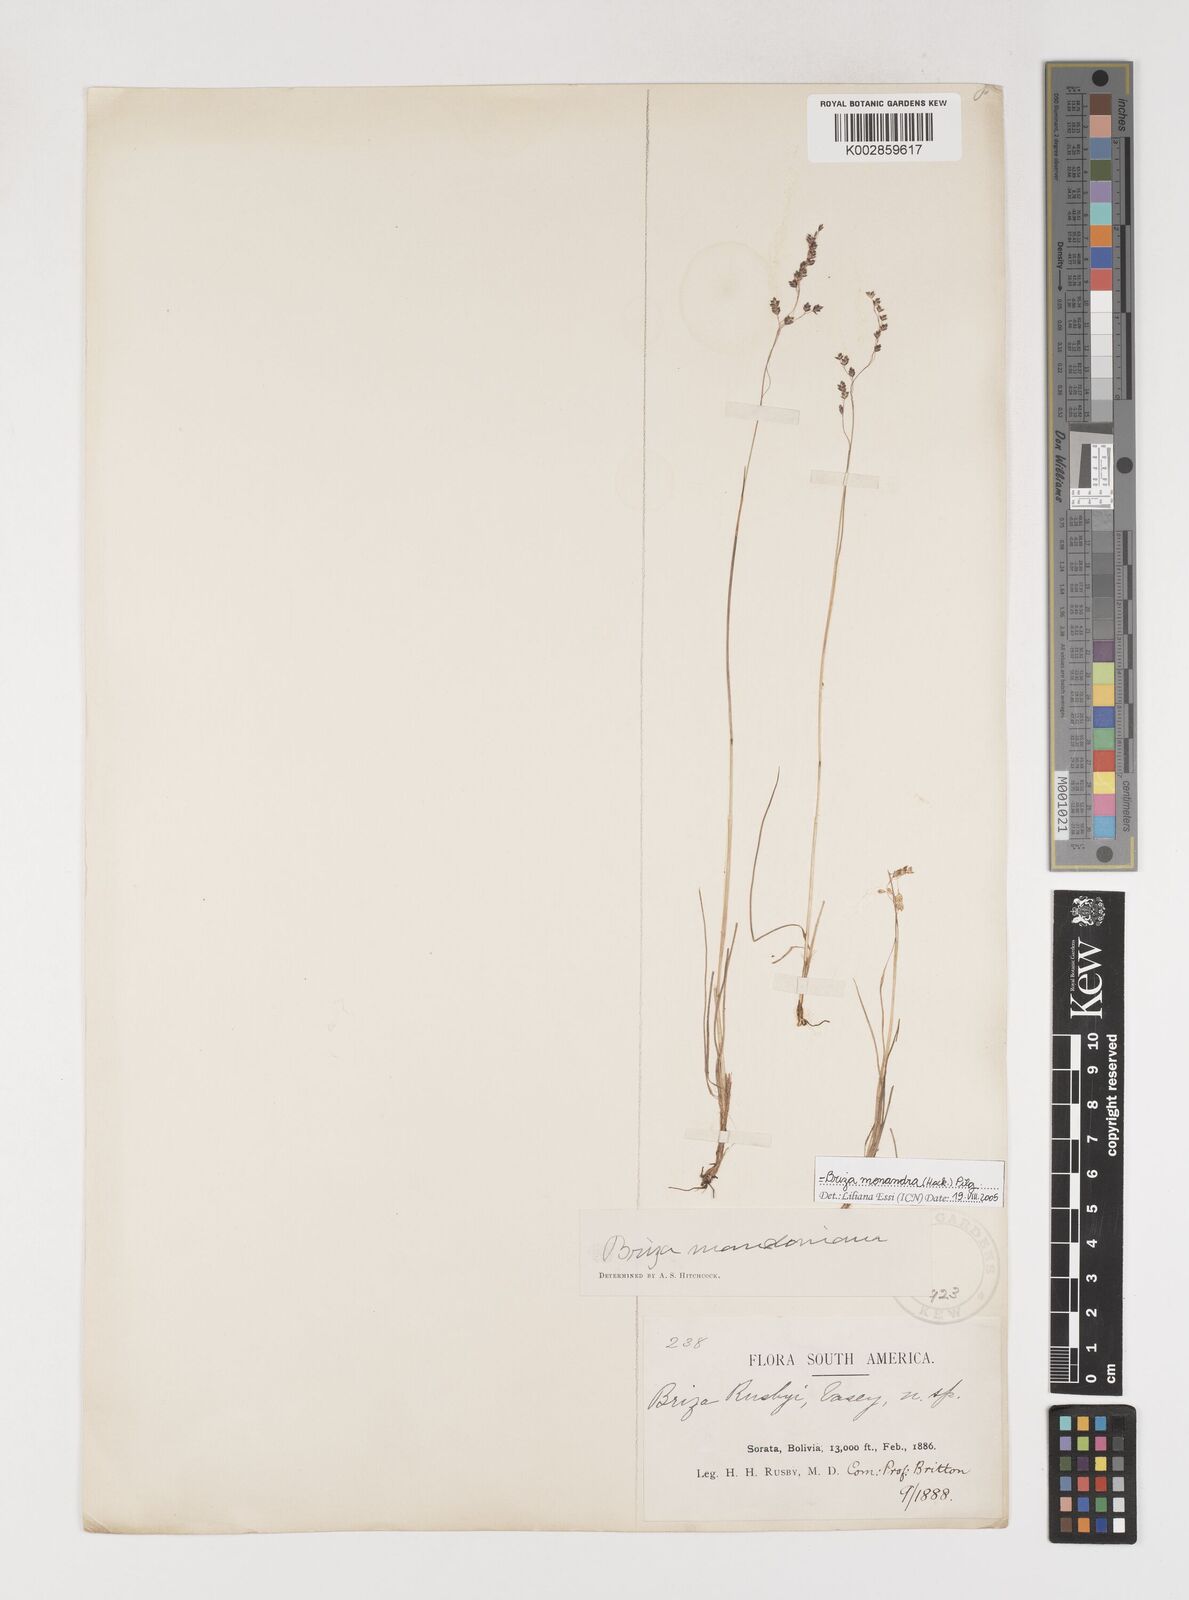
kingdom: Plantae
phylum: Tracheophyta
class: Liliopsida
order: Poales
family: Poaceae
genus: Poidium
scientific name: Poidium monandrum
